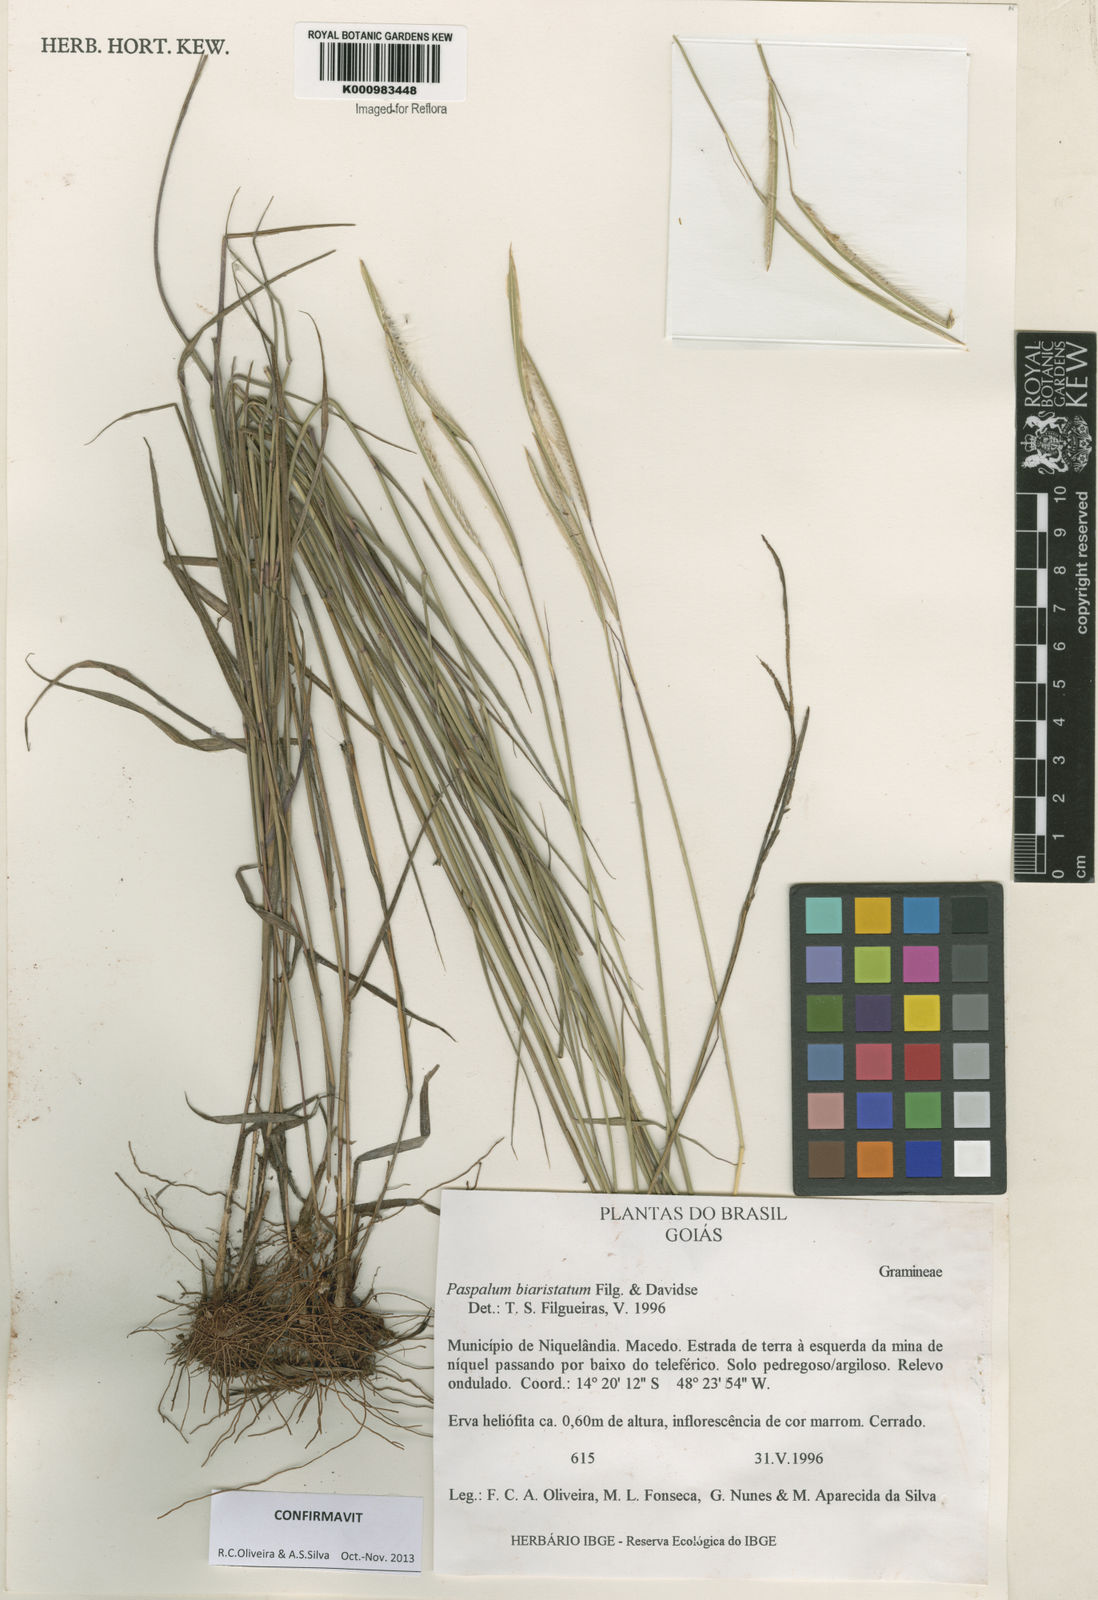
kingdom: Plantae
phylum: Tracheophyta
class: Liliopsida
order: Poales
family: Poaceae
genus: Paspalum
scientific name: Paspalum biaristatum
